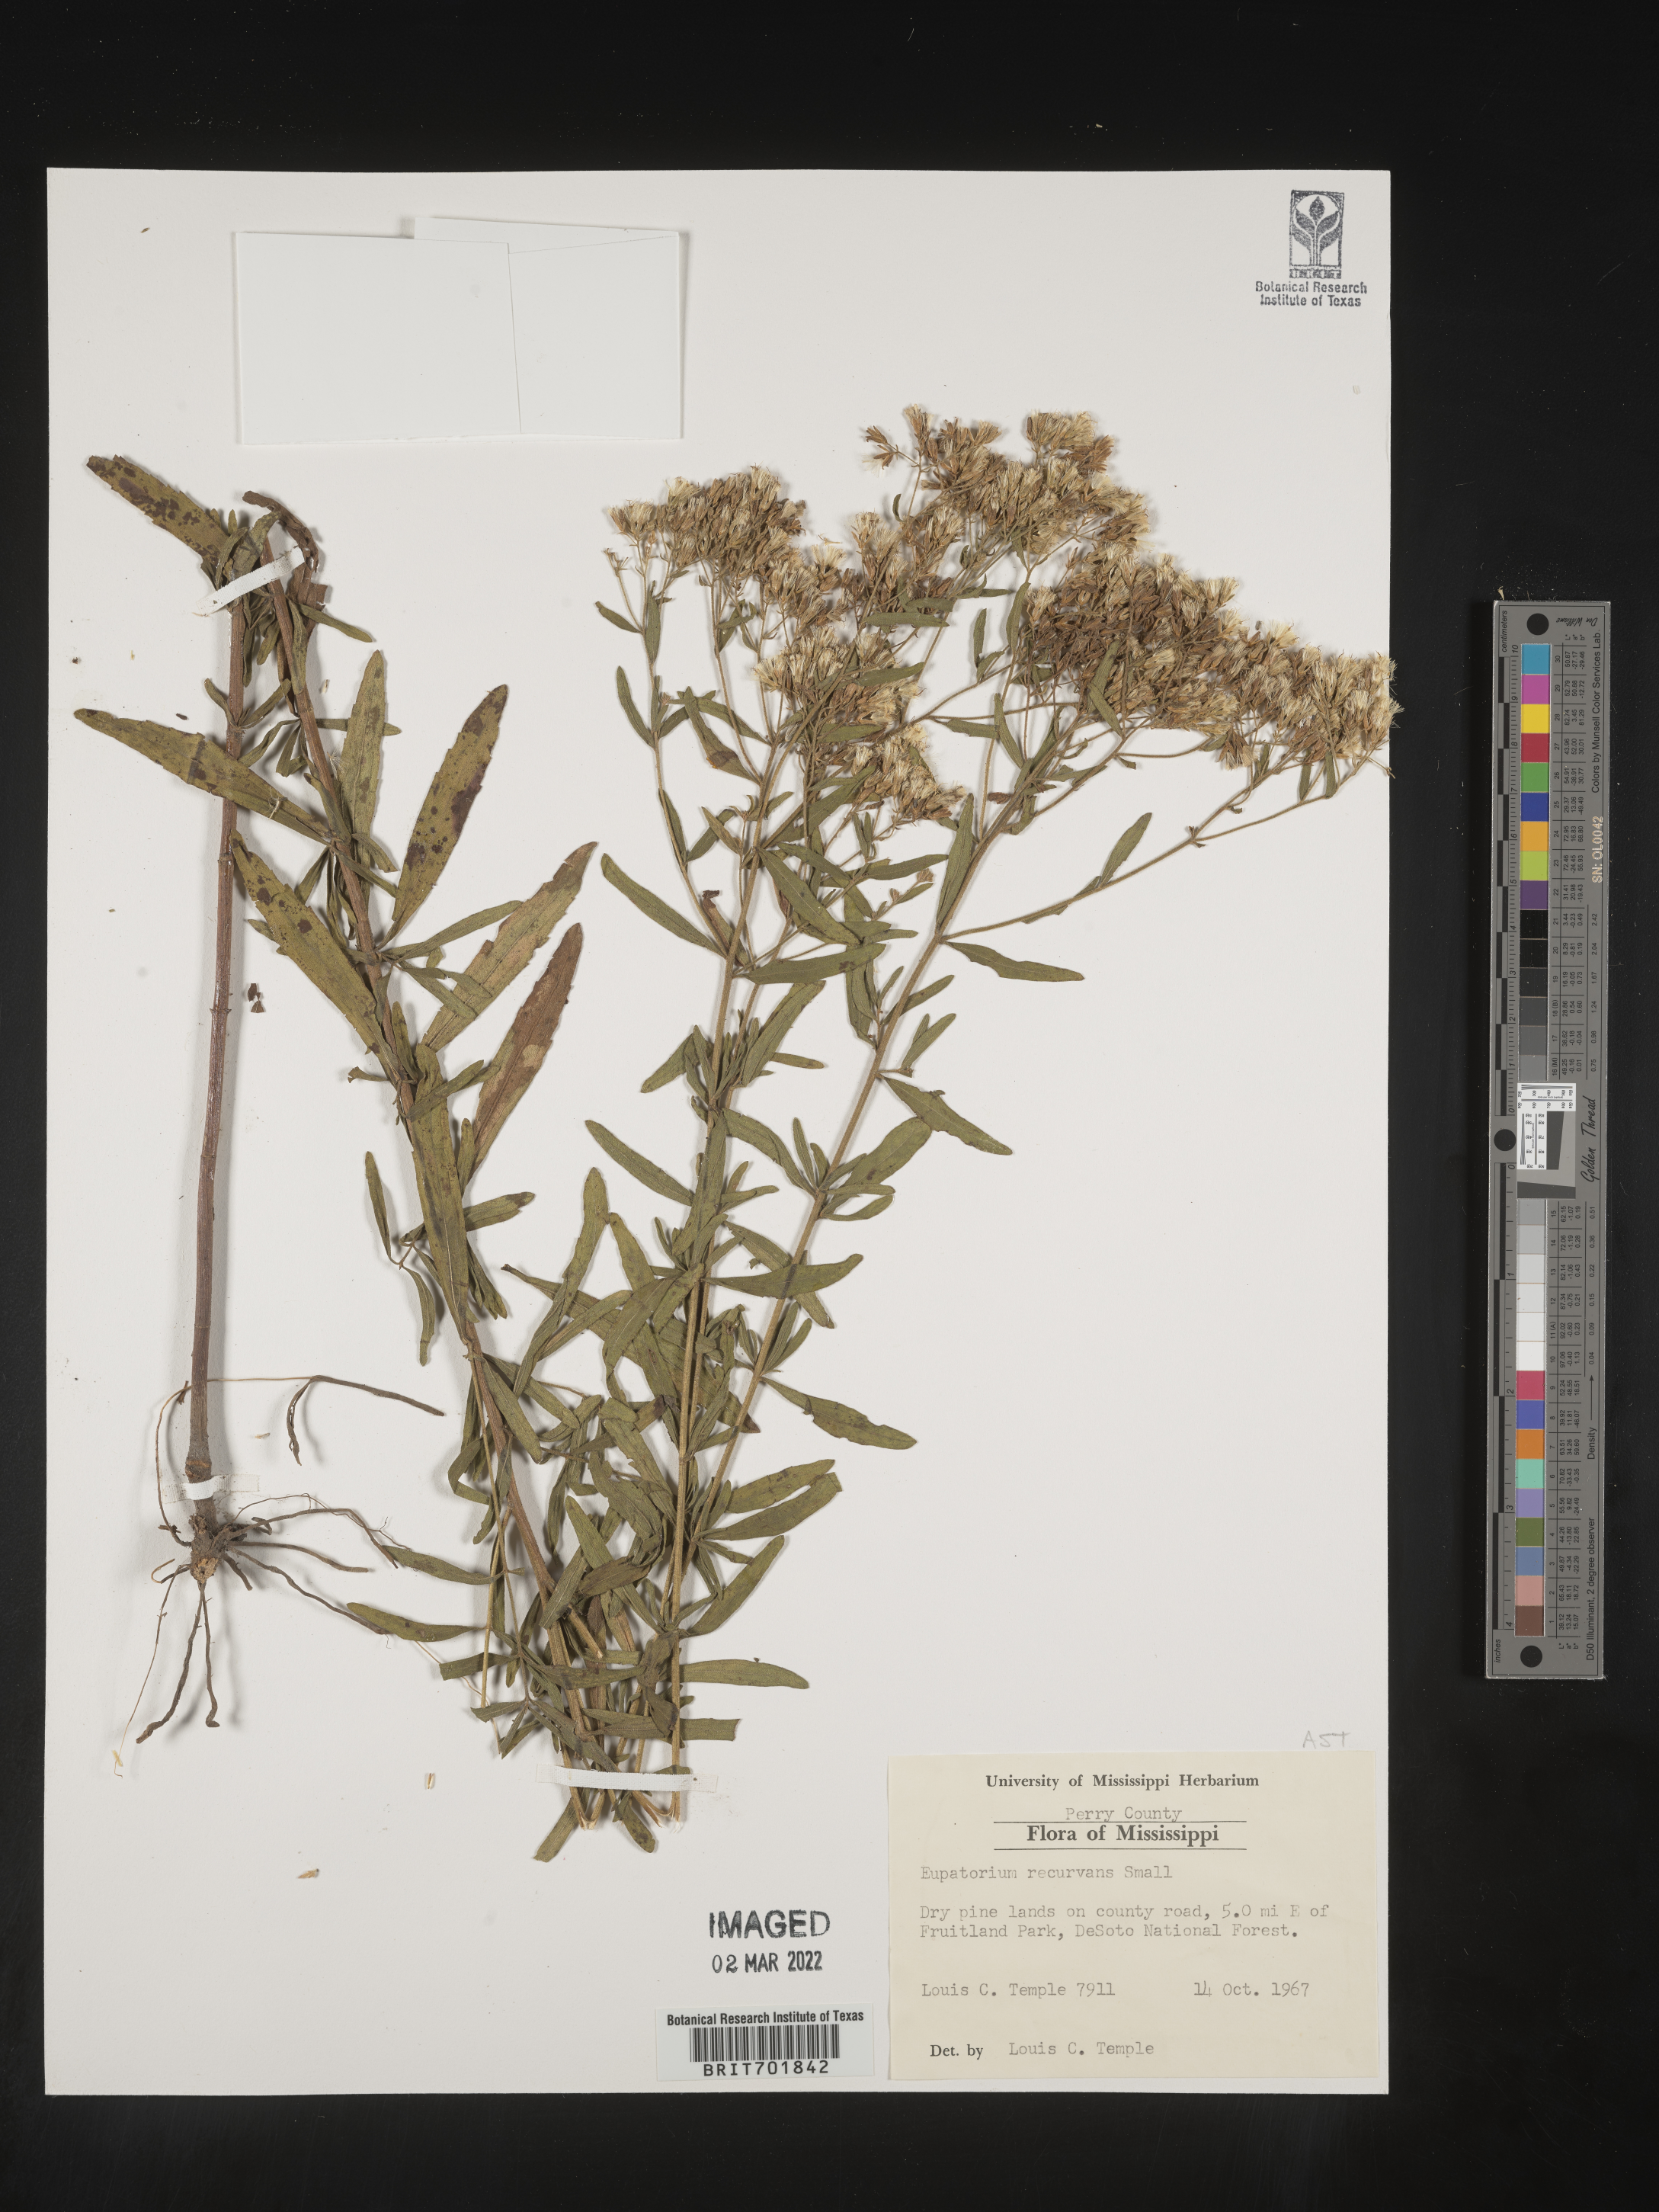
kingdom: Plantae
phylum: Tracheophyta
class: Magnoliopsida
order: Asterales
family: Asteraceae
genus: Eupatorium
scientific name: Eupatorium mohrii
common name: Mohr's thoroughwort
